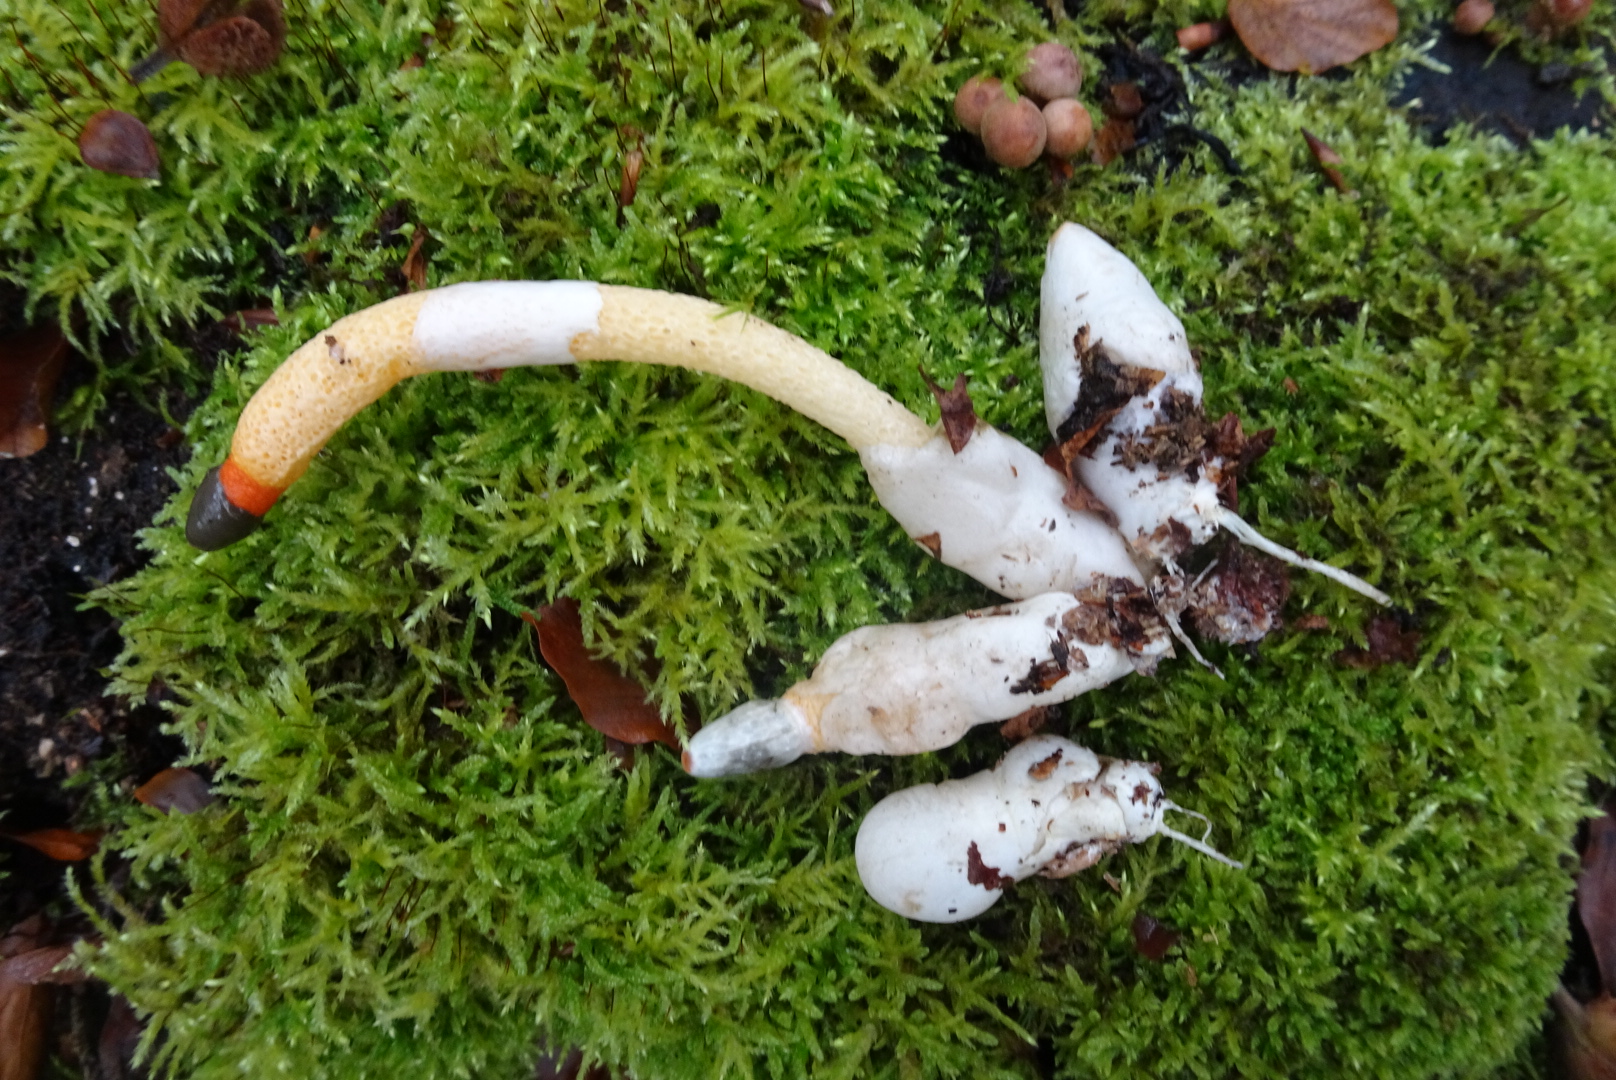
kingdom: Fungi
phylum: Basidiomycota
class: Agaricomycetes
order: Phallales
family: Phallaceae
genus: Mutinus
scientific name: Mutinus caninus
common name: hunde-stinksvamp
